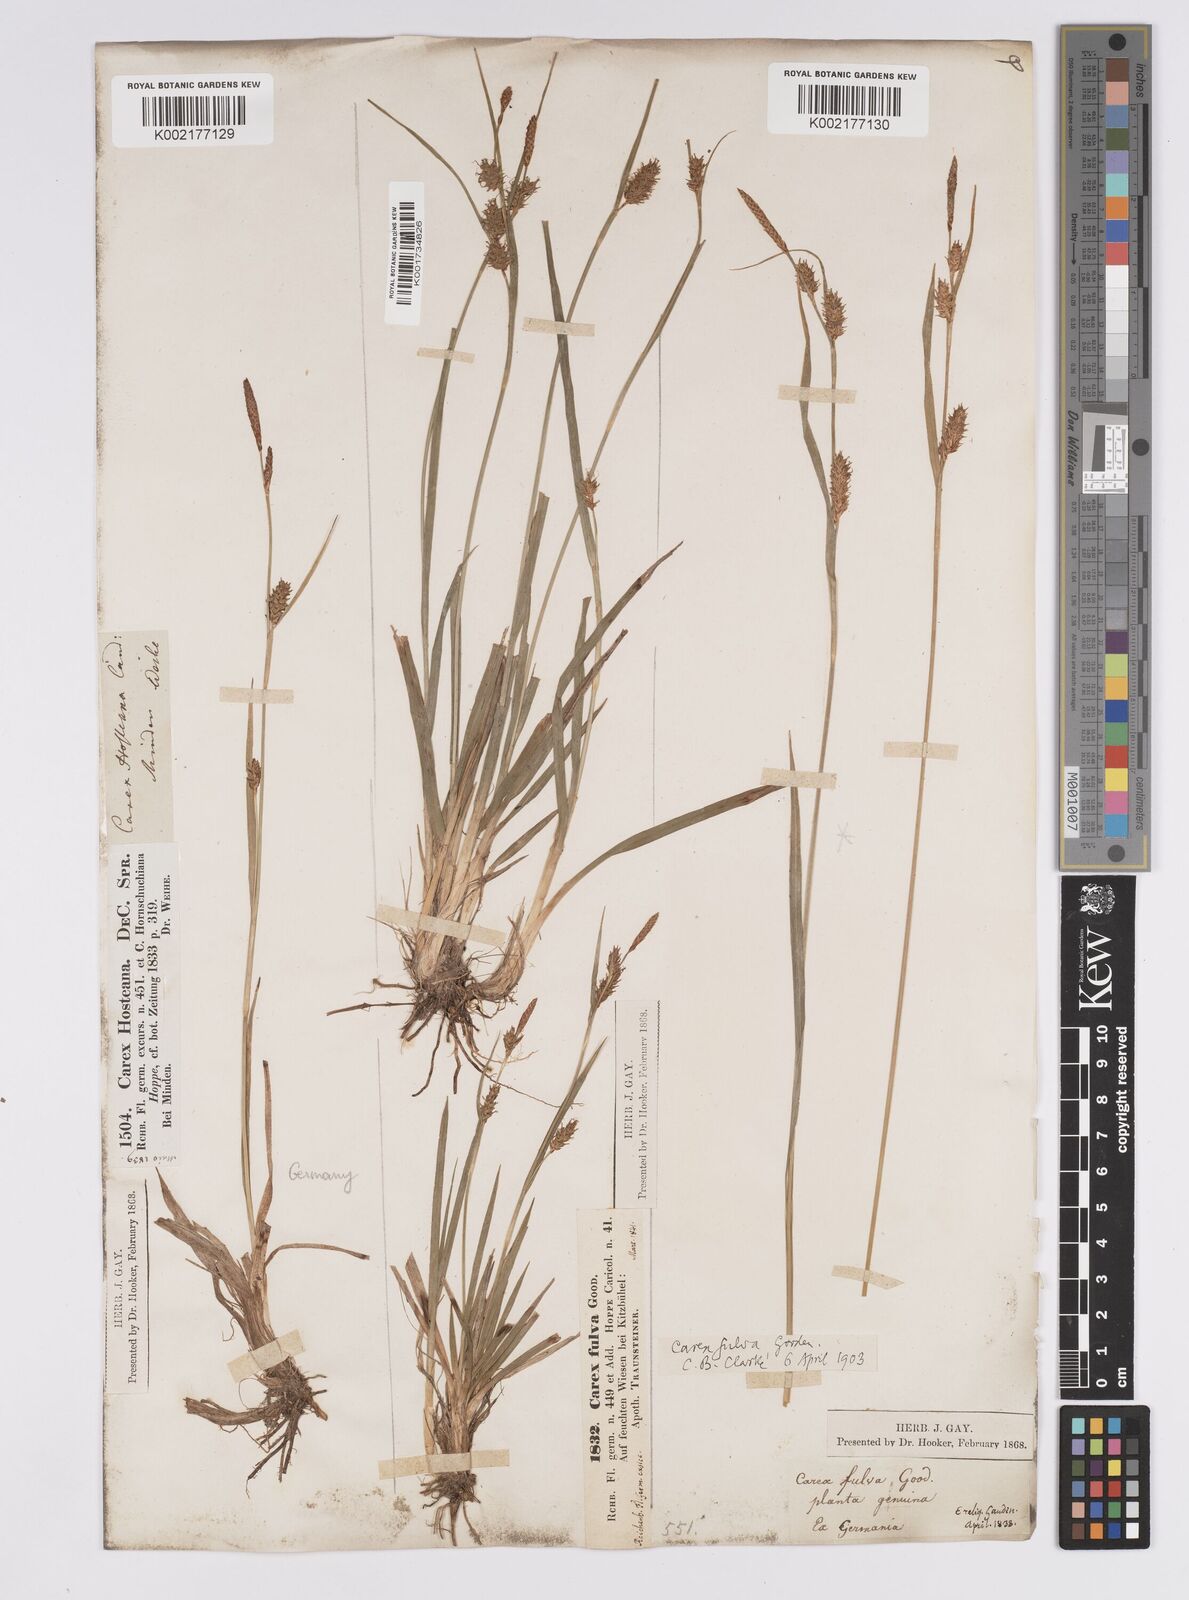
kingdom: Plantae
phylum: Tracheophyta
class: Liliopsida
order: Poales
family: Cyperaceae
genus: Carex
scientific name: Carex hostiana
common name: Tawny sedge
